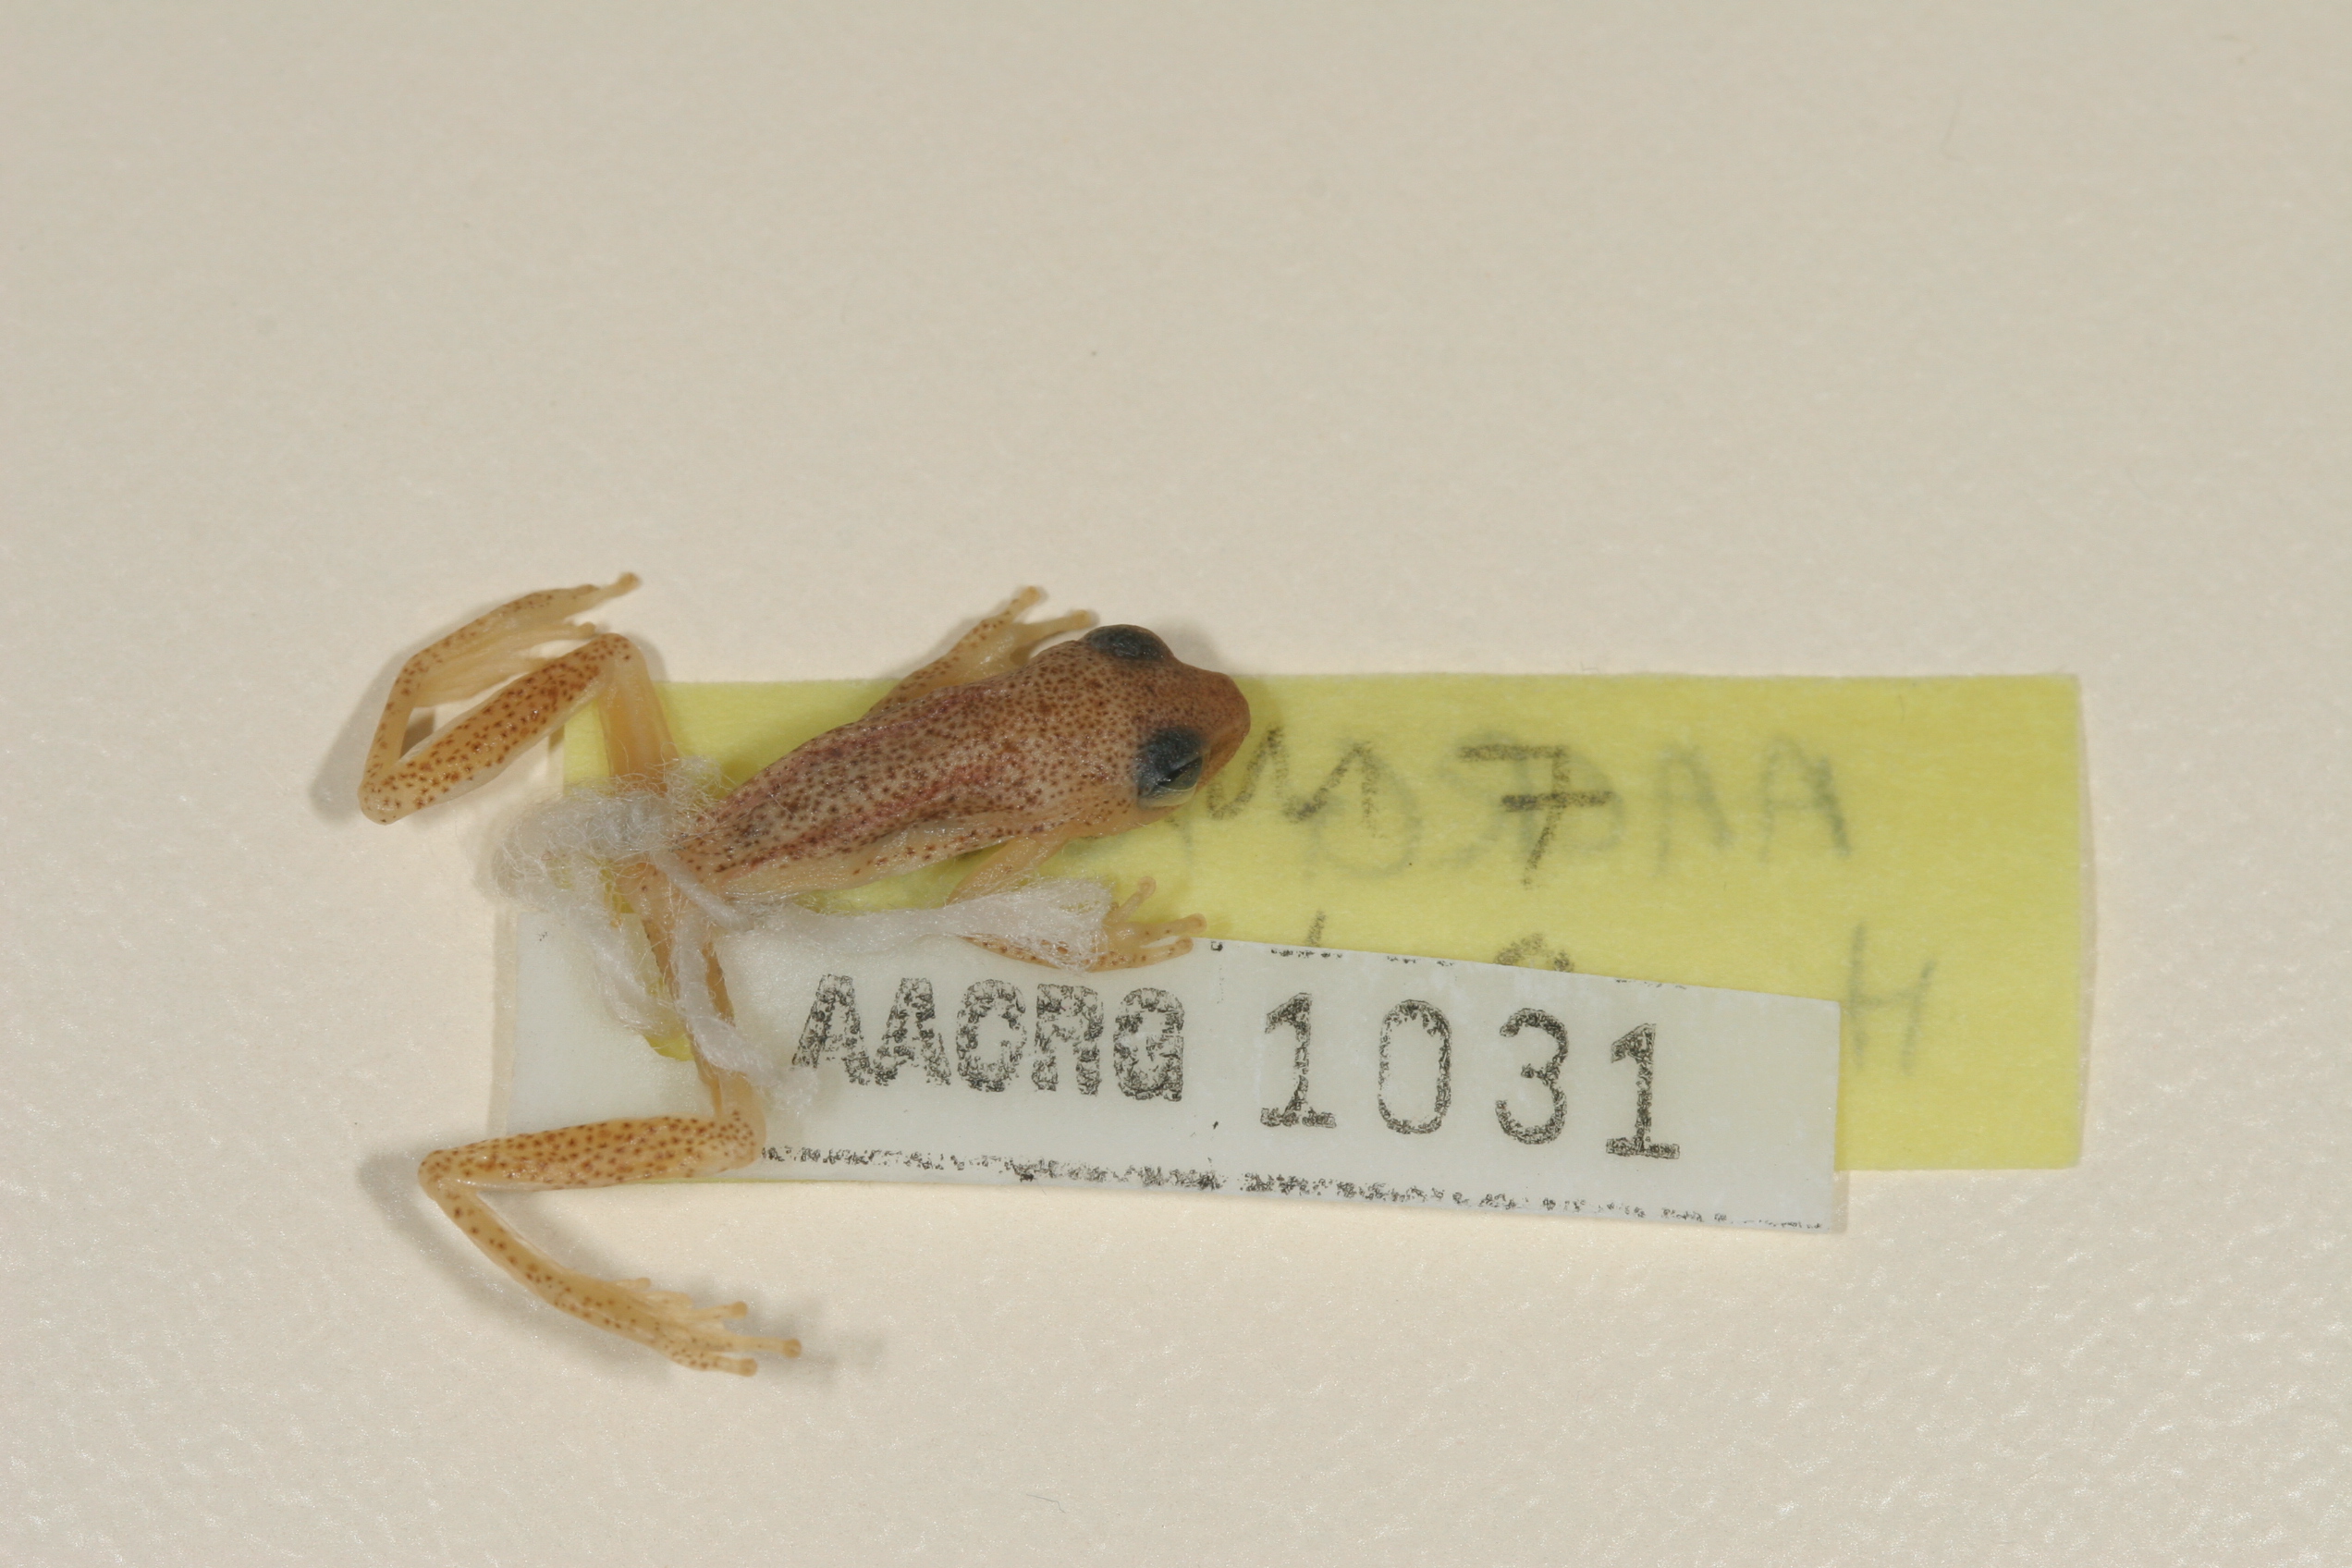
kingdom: Animalia
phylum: Chordata
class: Amphibia
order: Anura
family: Hyperoliidae
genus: Hyperolius
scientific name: Hyperolius nasutus
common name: Sharp-and-blunt-snouted sedge frog
